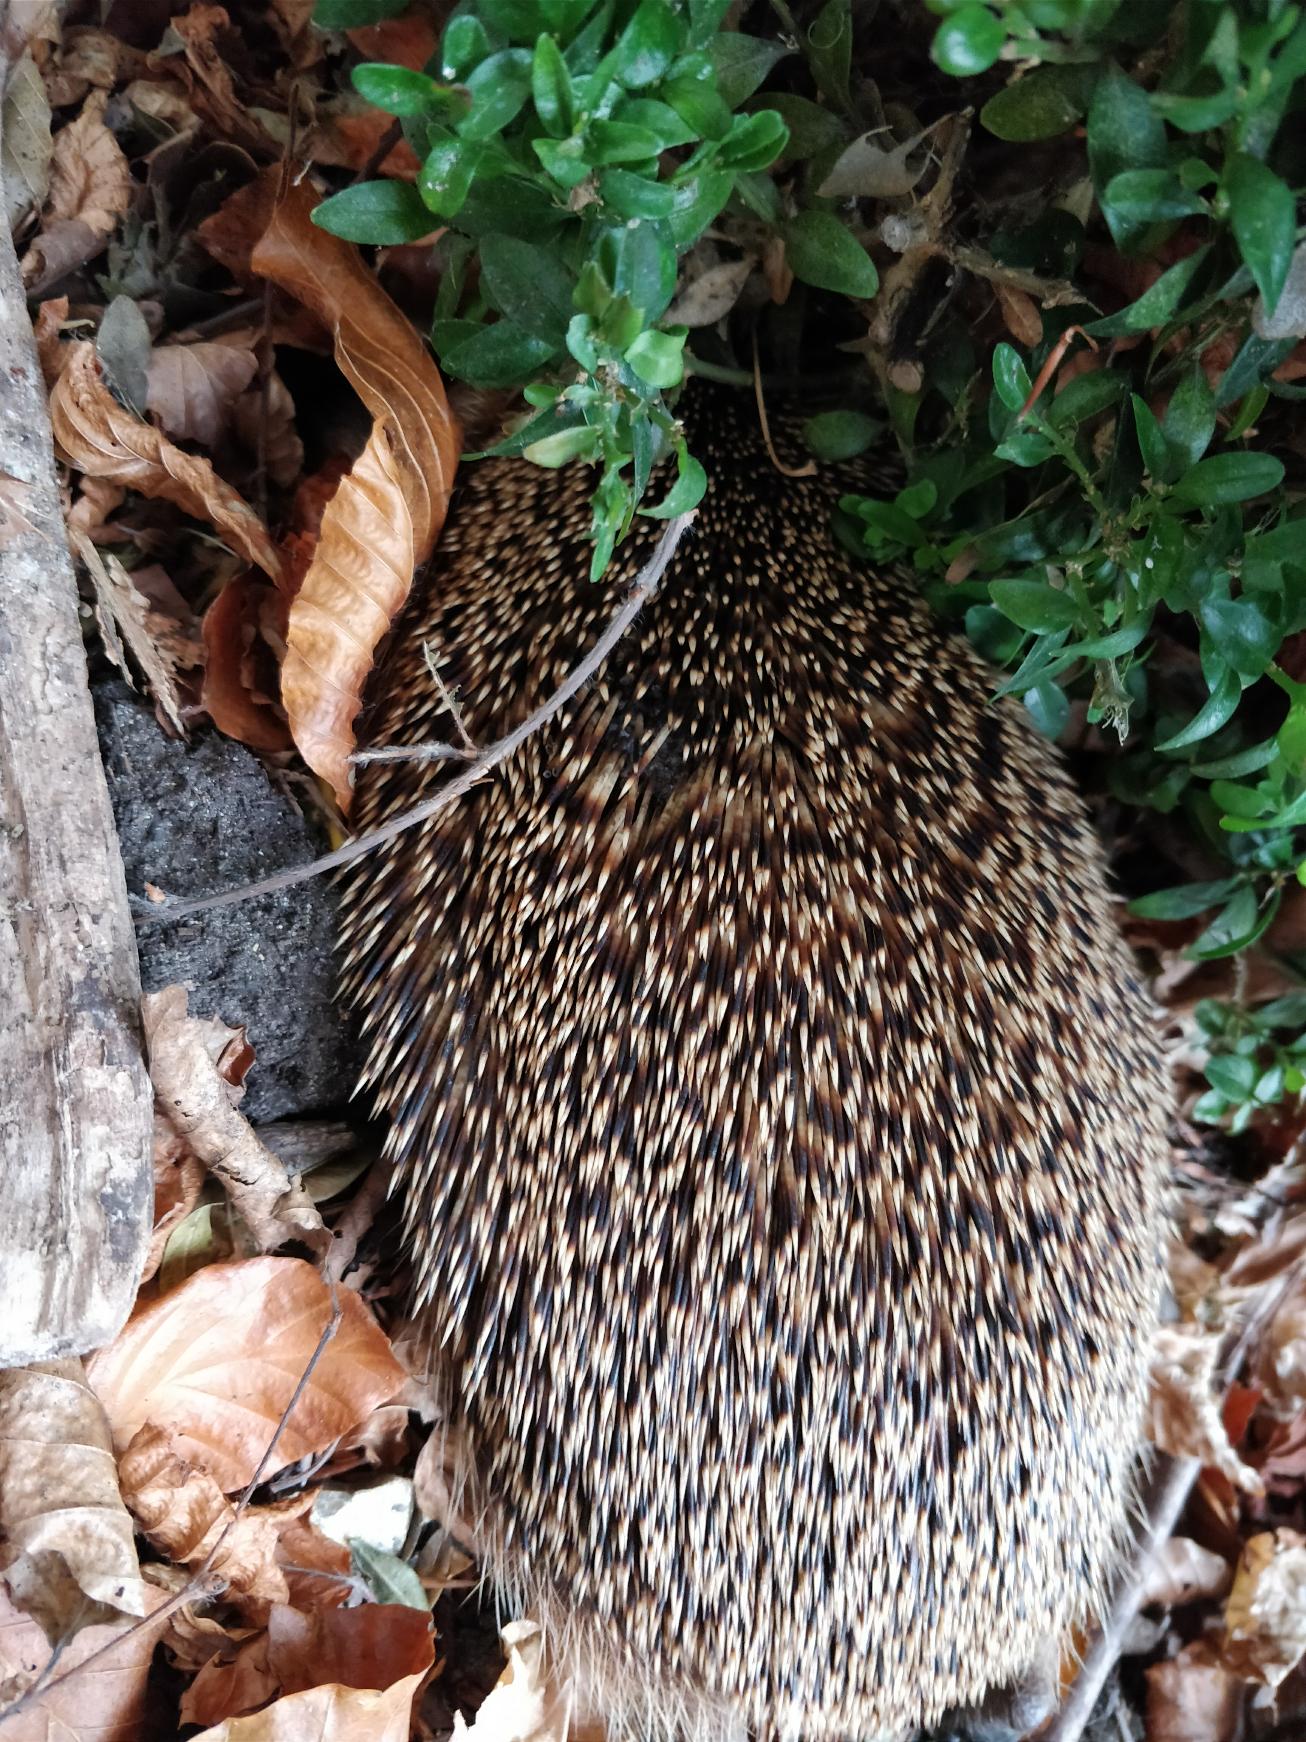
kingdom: Animalia
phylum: Chordata
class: Mammalia
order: Erinaceomorpha
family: Erinaceidae
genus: Erinaceus
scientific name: Erinaceus europaeus
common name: Pindsvin
